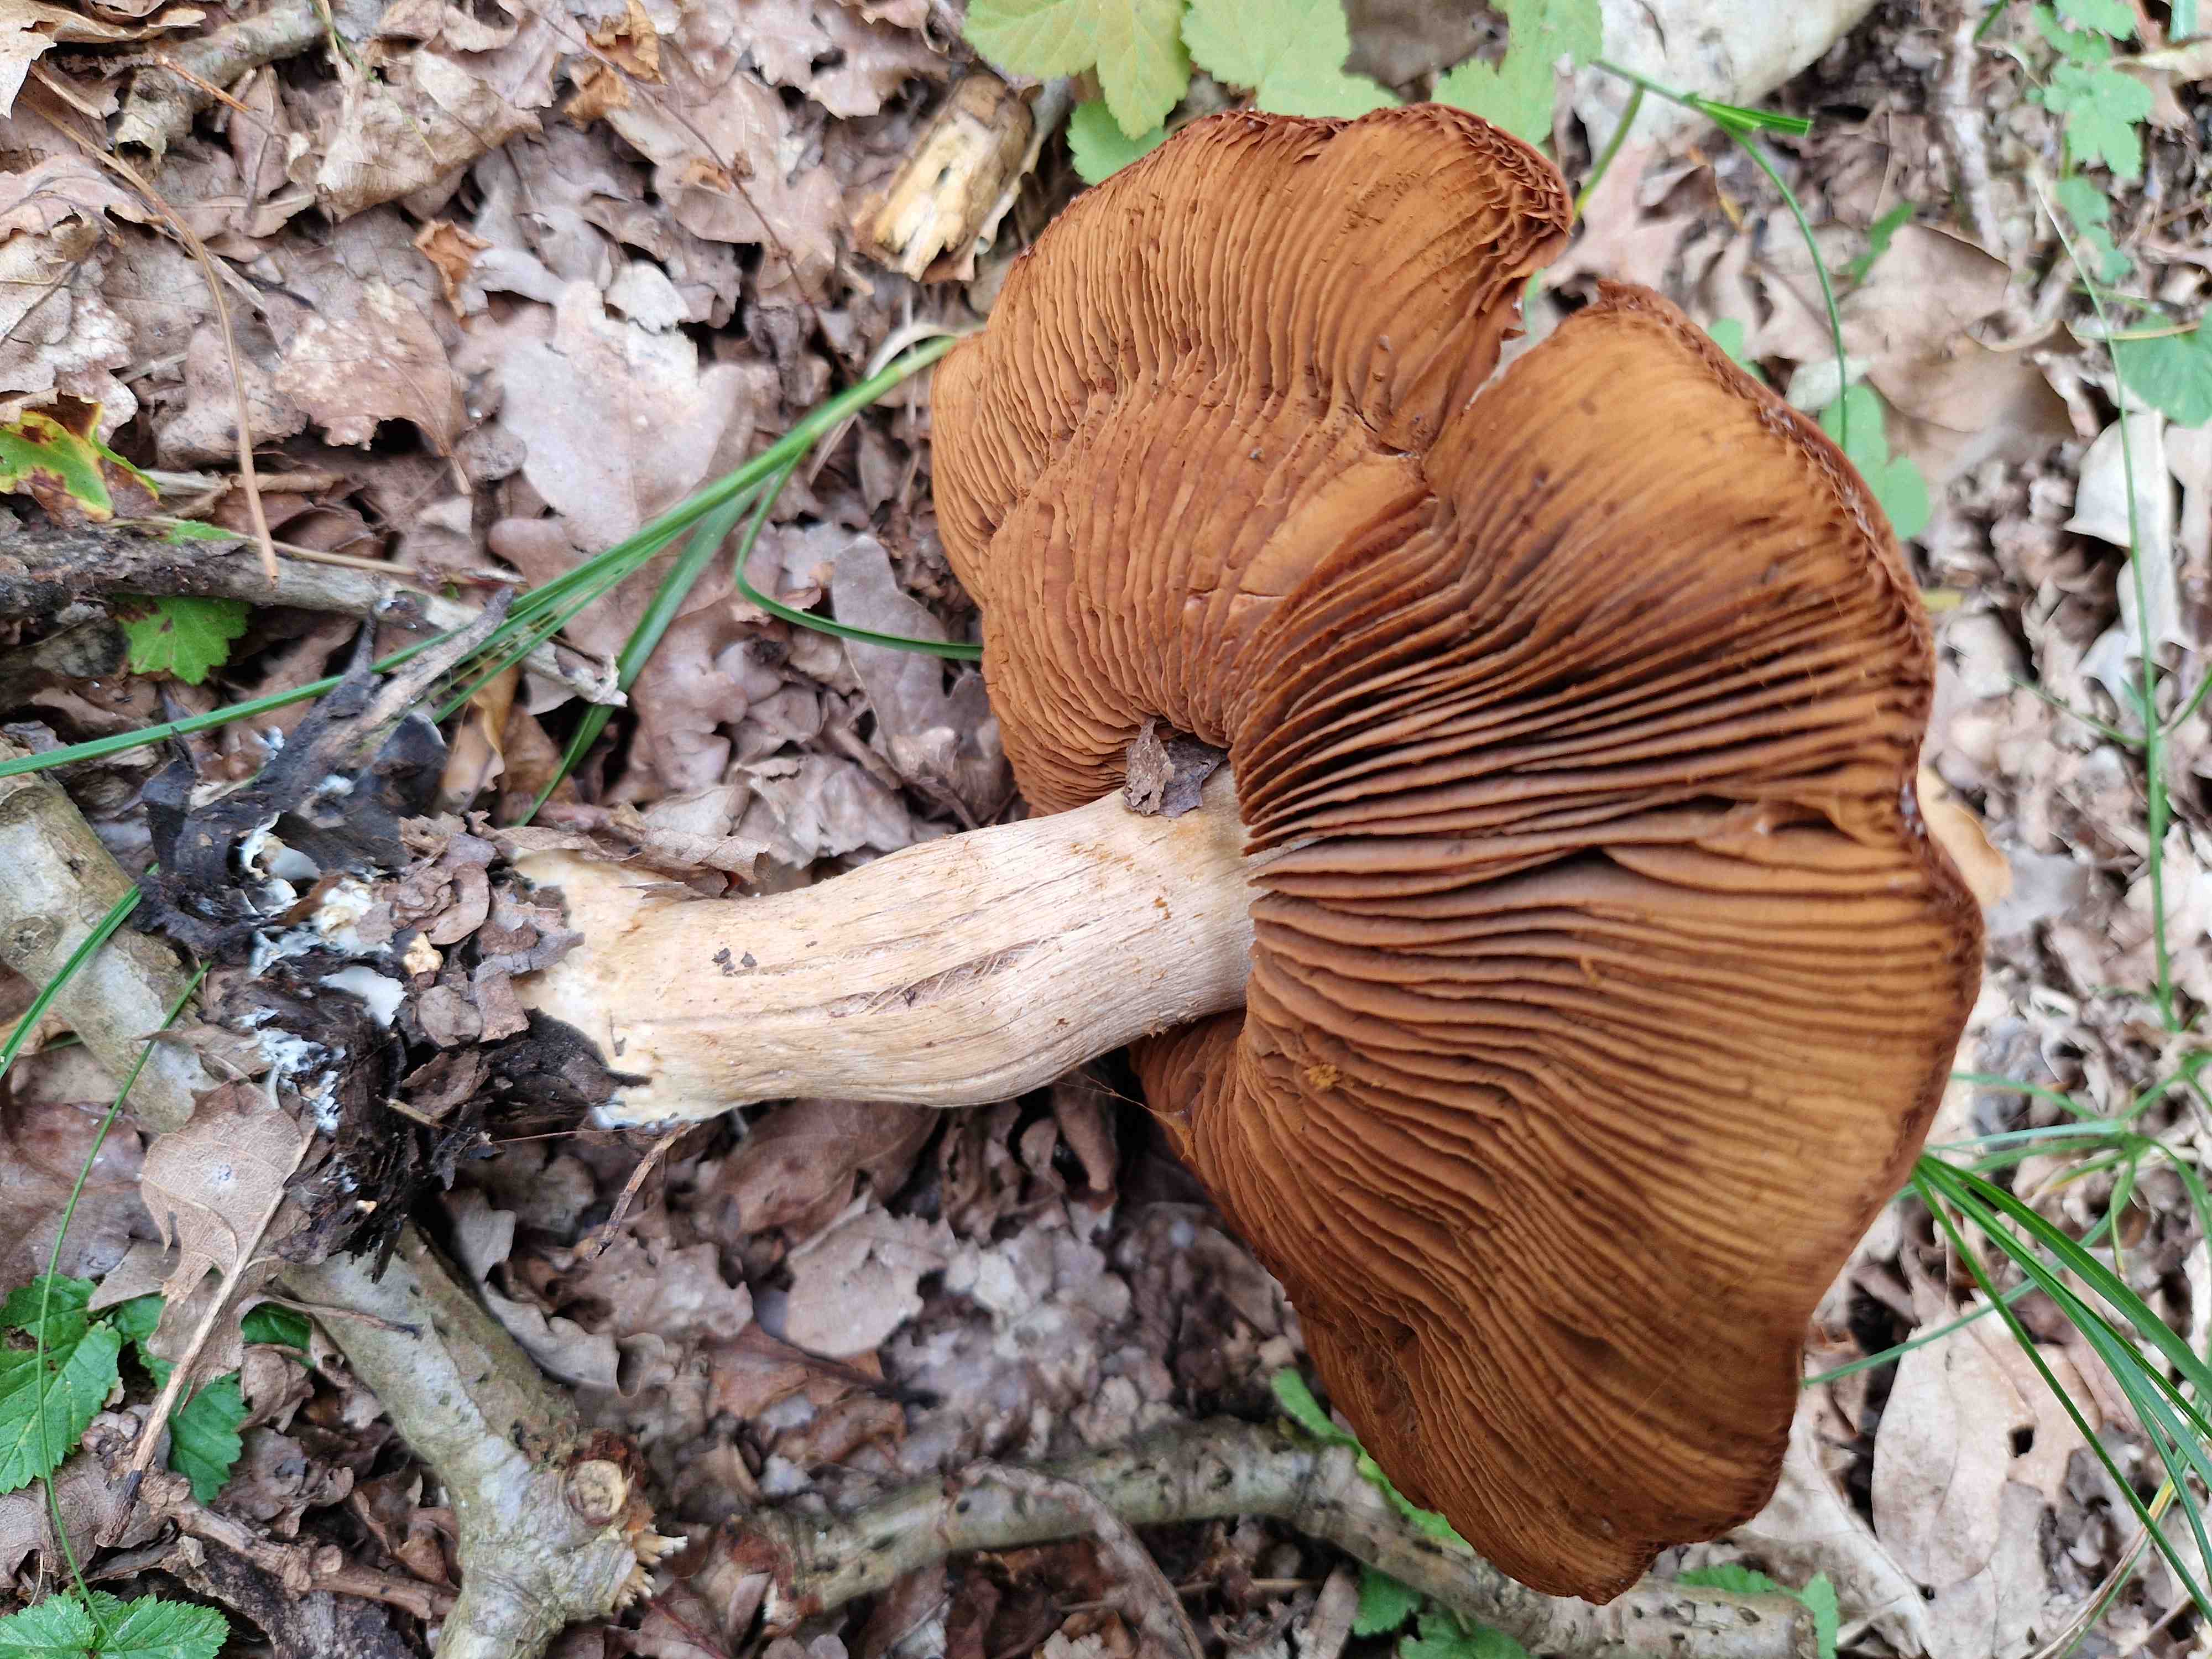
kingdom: Fungi
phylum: Basidiomycota
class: Agaricomycetes
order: Agaricales
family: Cortinariaceae
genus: Cortinarius
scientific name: Cortinarius
